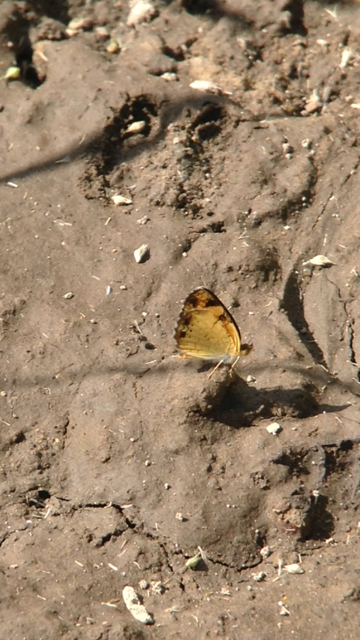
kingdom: Animalia
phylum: Arthropoda
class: Insecta
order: Lepidoptera
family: Nymphalidae
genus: Phyciodes
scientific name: Phyciodes tharos
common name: Pearl Crescent
